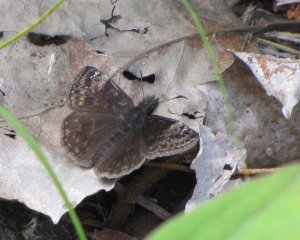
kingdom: Animalia
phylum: Arthropoda
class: Insecta
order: Lepidoptera
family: Hesperiidae
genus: Gesta
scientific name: Gesta
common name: Columbine Duskywing
